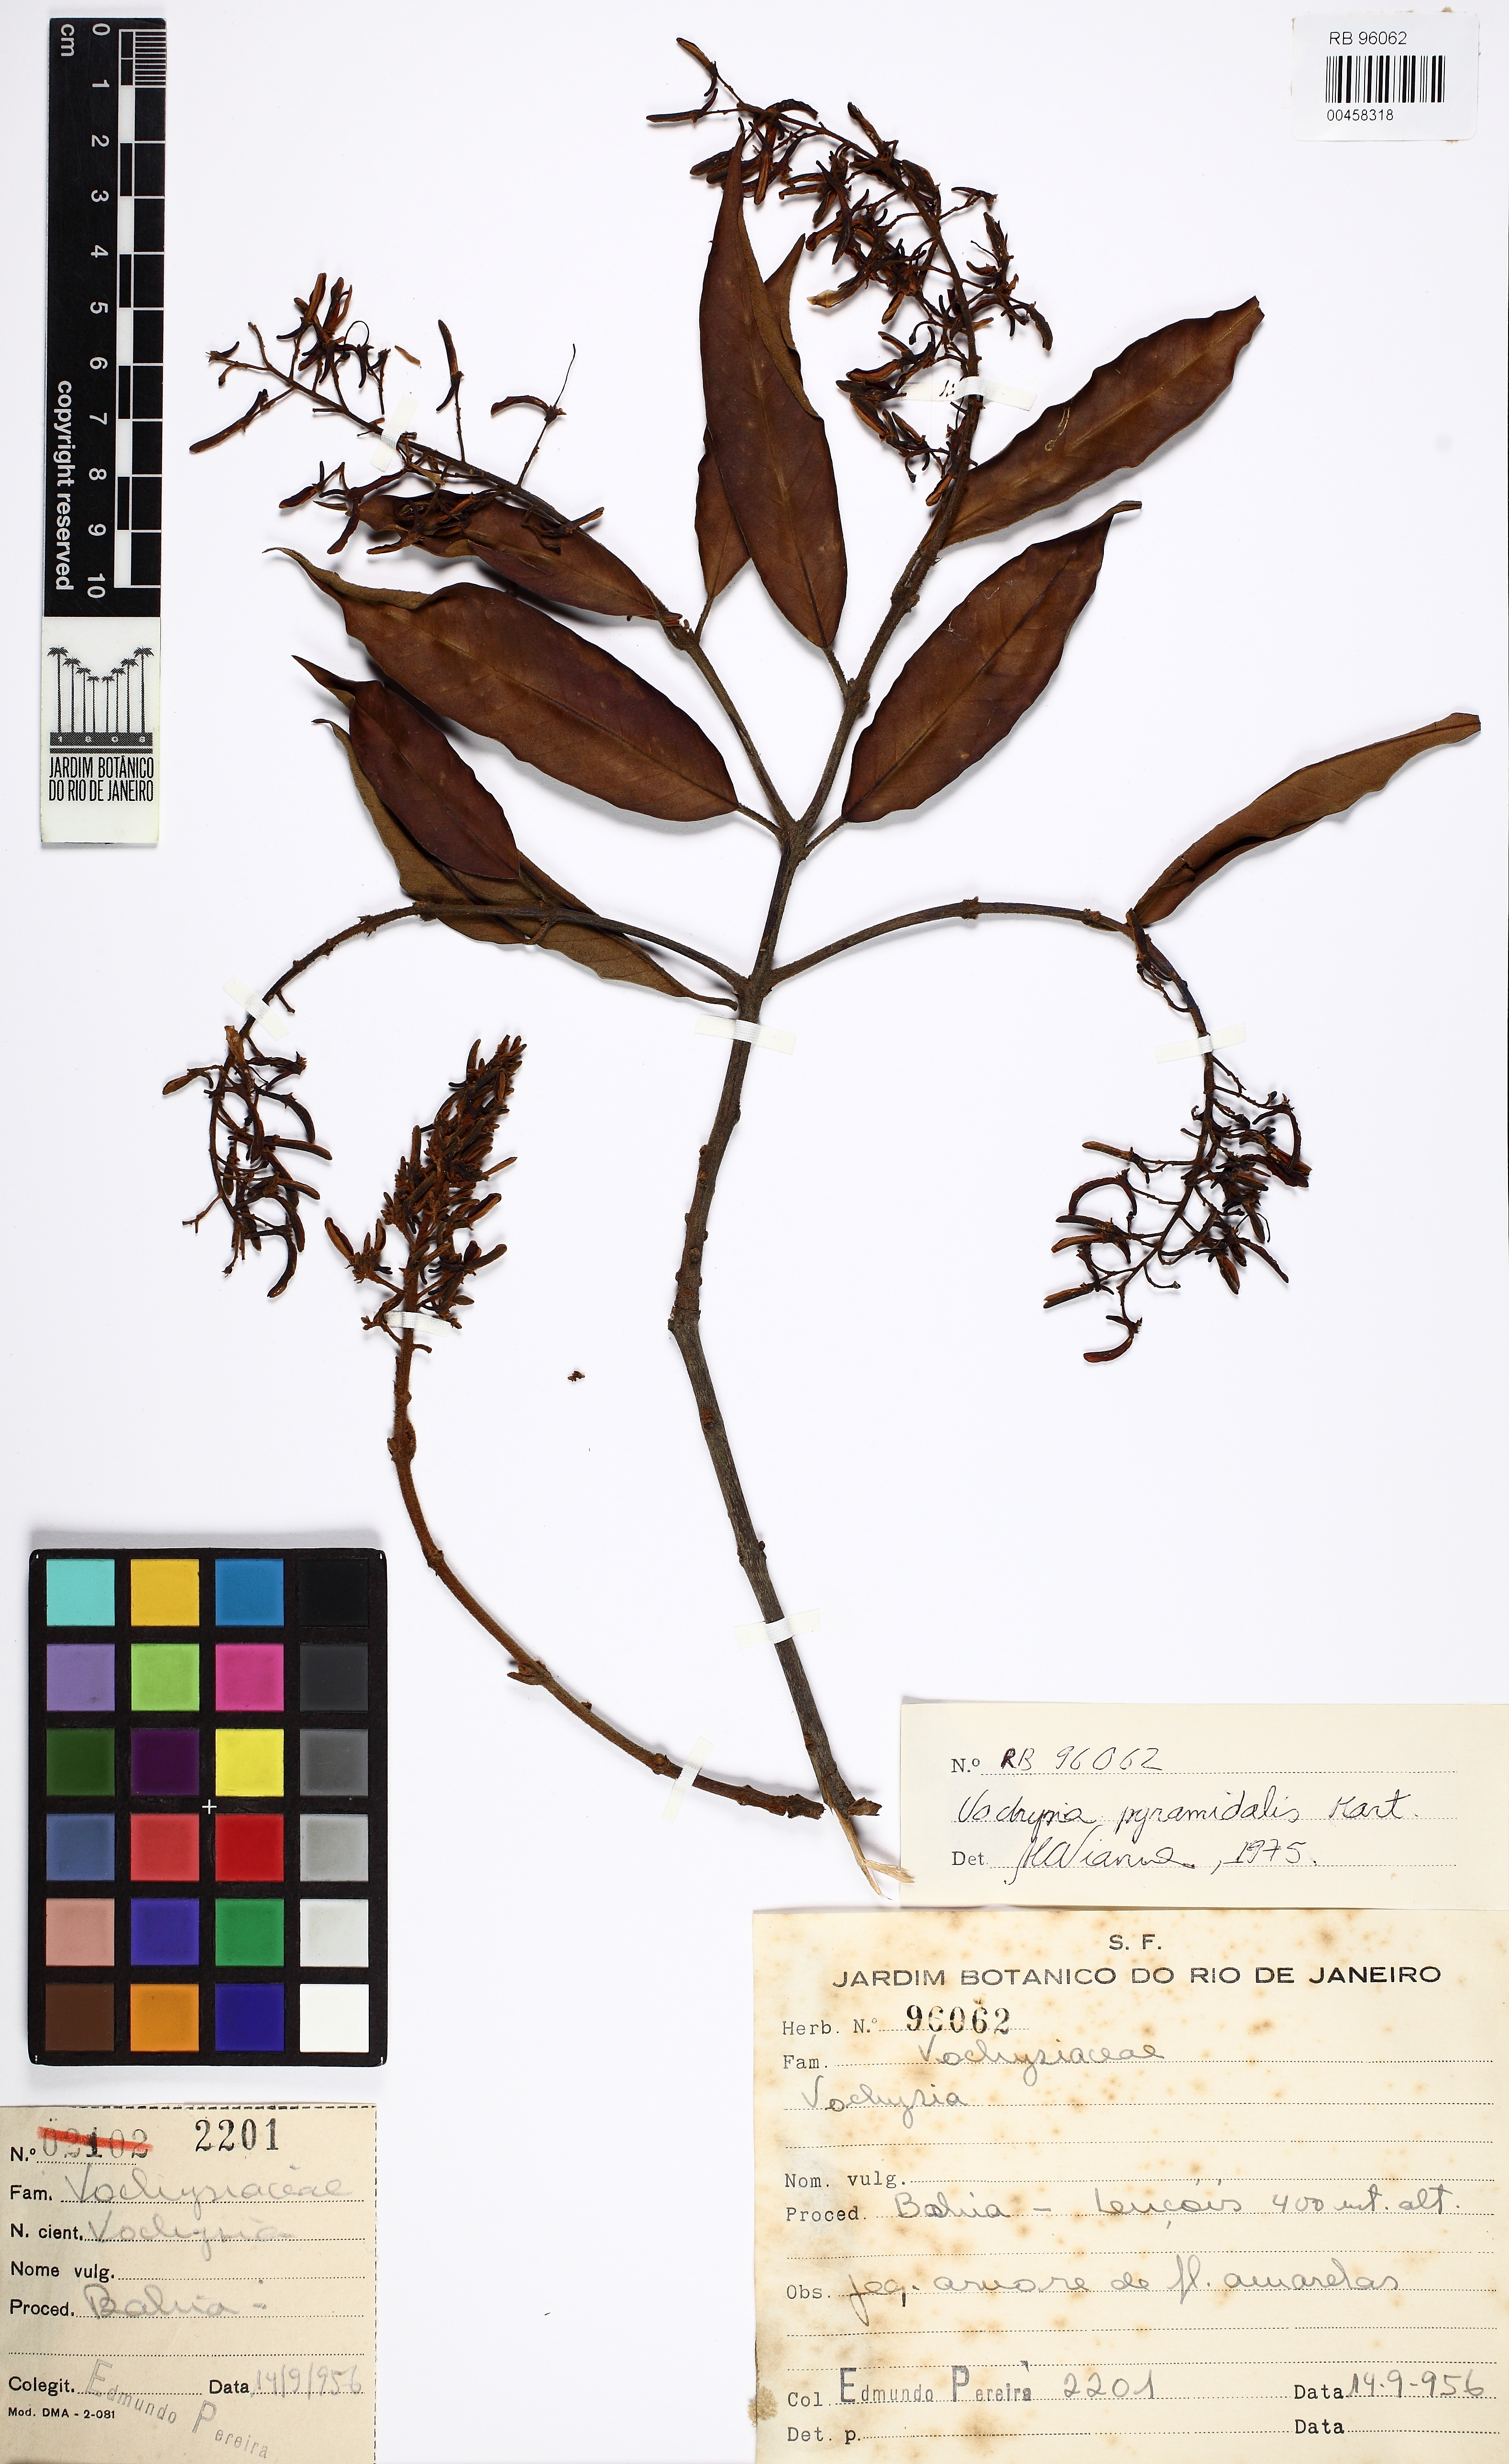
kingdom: Plantae
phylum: Tracheophyta
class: Magnoliopsida
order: Myrtales
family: Vochysiaceae
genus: Vochysia
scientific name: Vochysia
